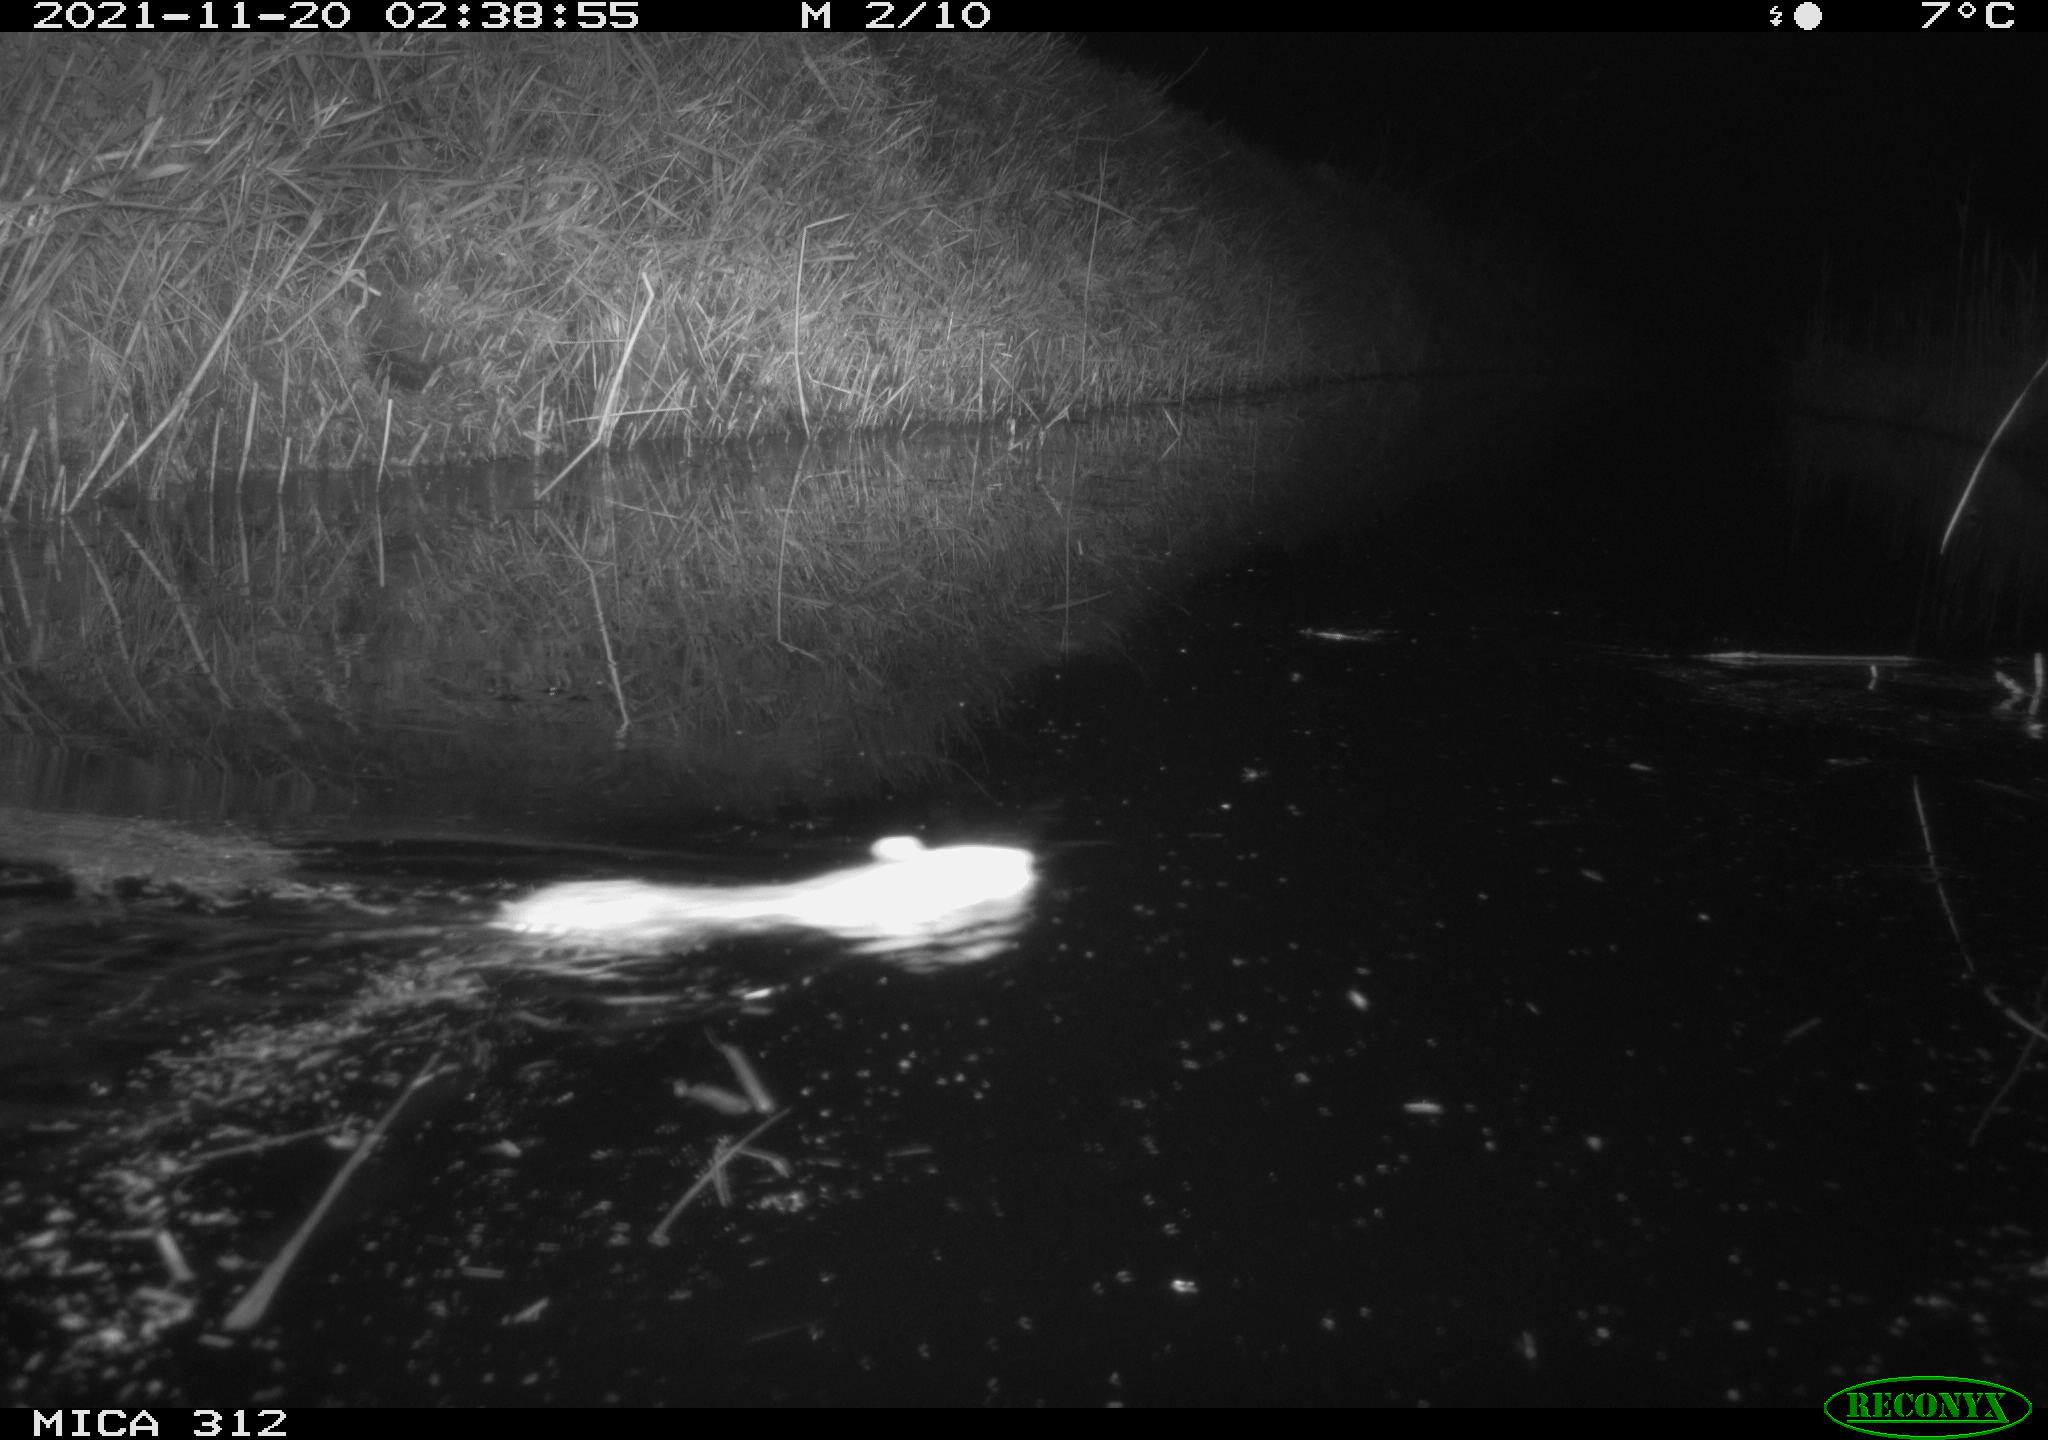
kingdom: Animalia
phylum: Chordata
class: Mammalia
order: Rodentia
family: Muridae
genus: Rattus
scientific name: Rattus norvegicus
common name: Brown rat
